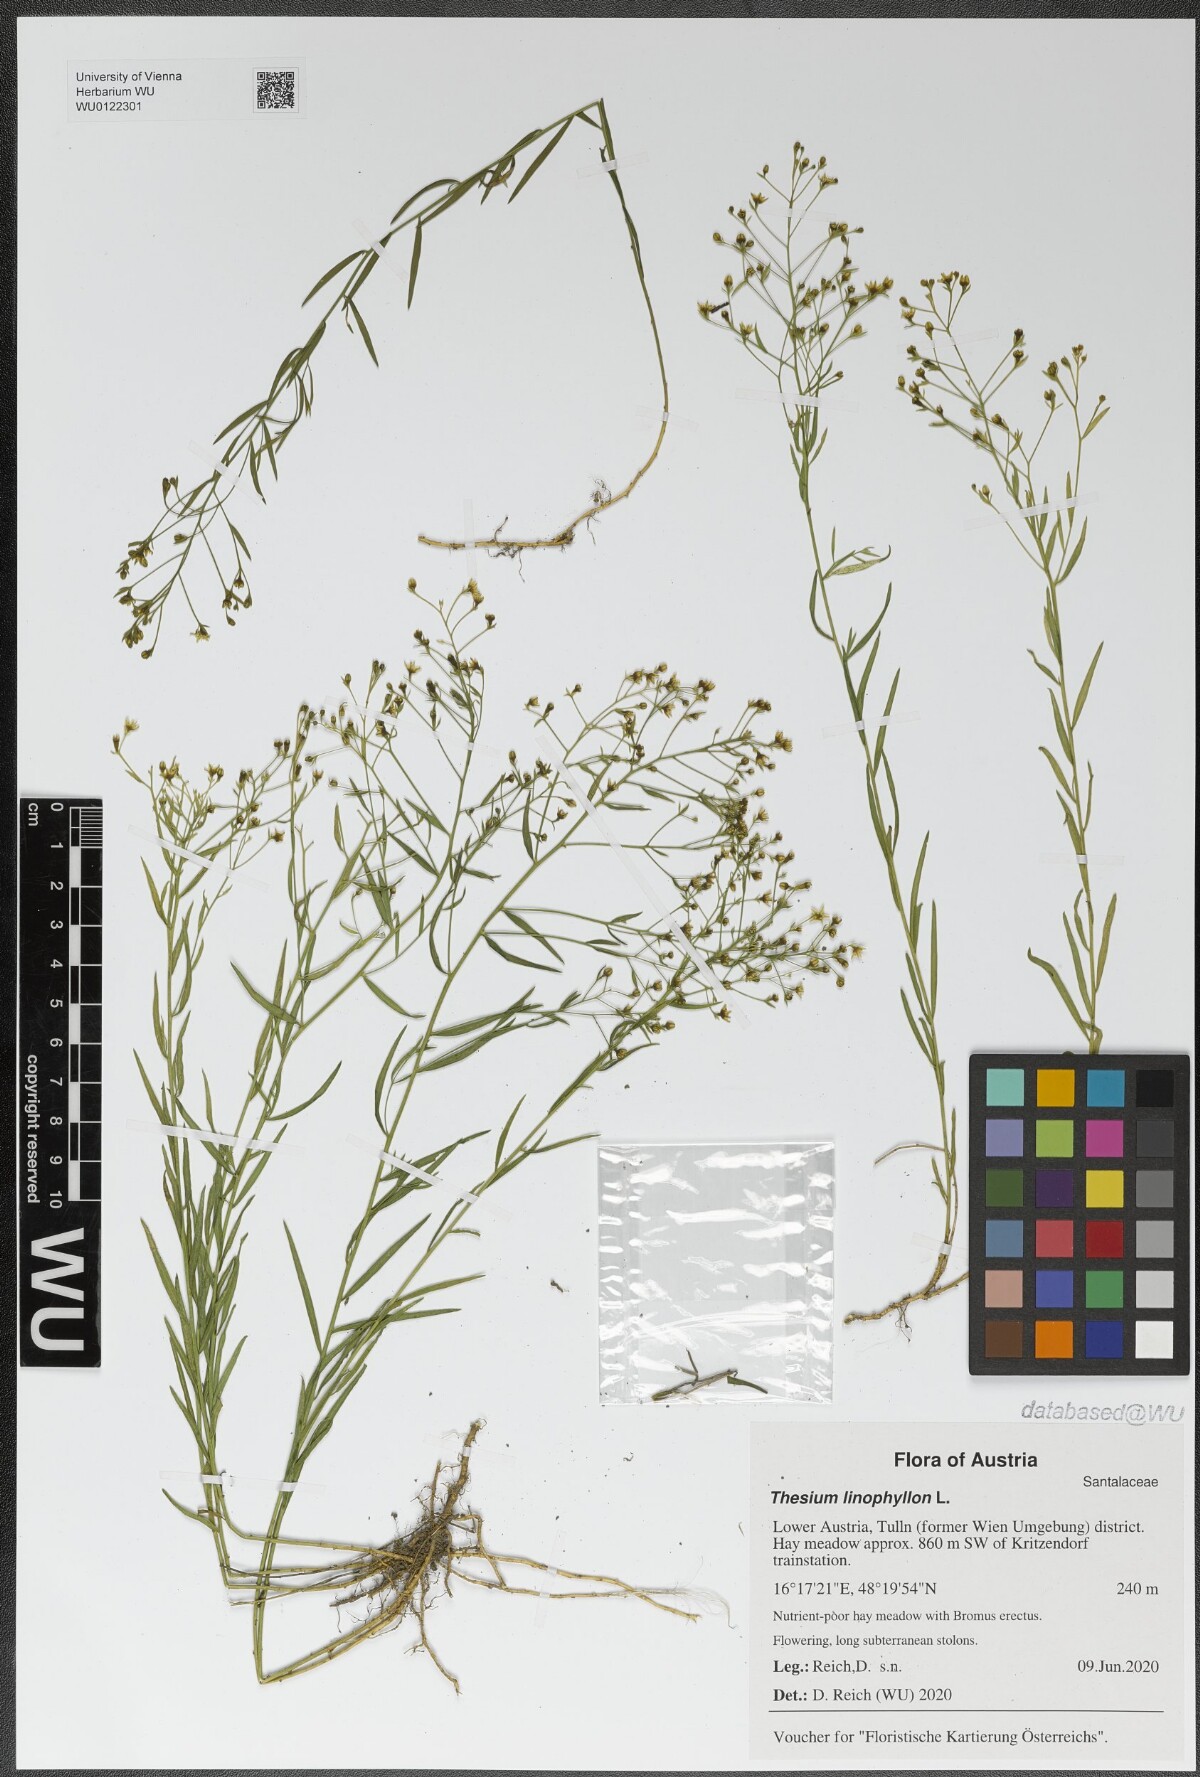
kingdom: Plantae
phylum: Tracheophyta
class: Magnoliopsida
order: Santalales
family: Thesiaceae
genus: Thesium
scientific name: Thesium linophyllon
